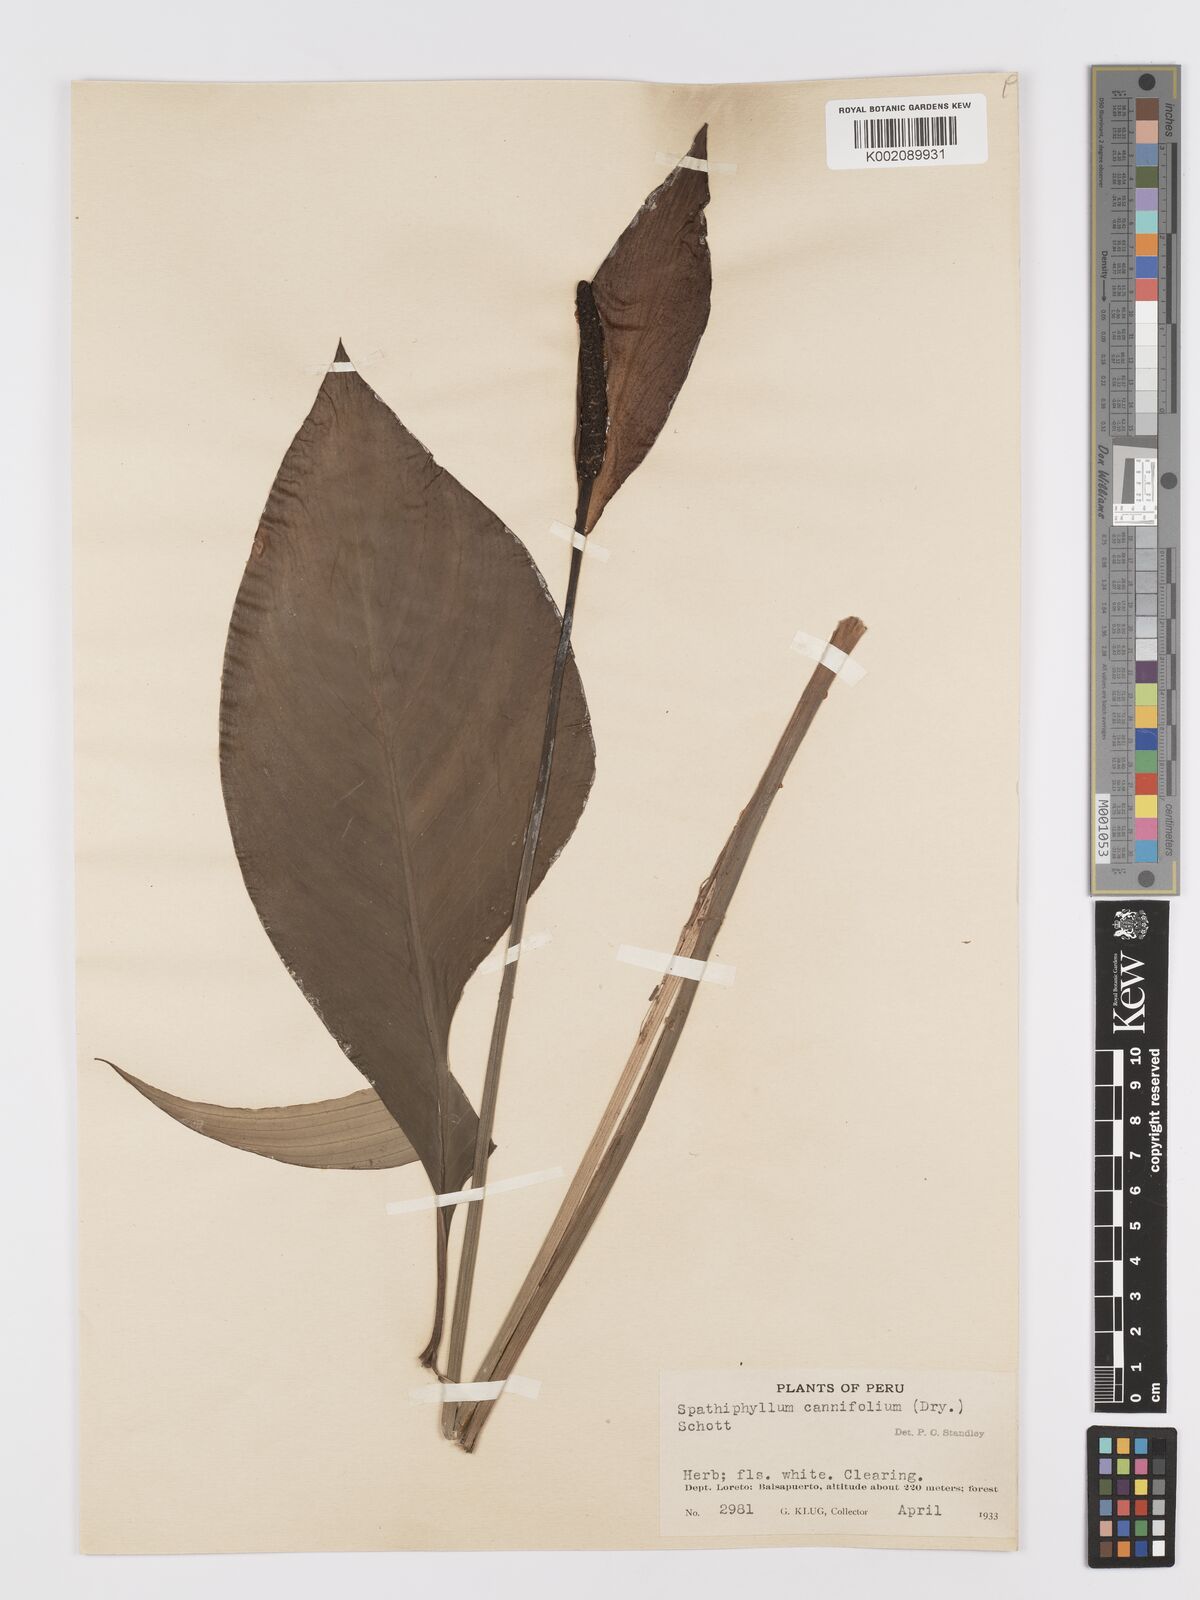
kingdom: Plantae
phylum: Tracheophyta
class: Liliopsida
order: Alismatales
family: Araceae
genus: Spathiphyllum
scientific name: Spathiphyllum cannifolium
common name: Spatheflower
